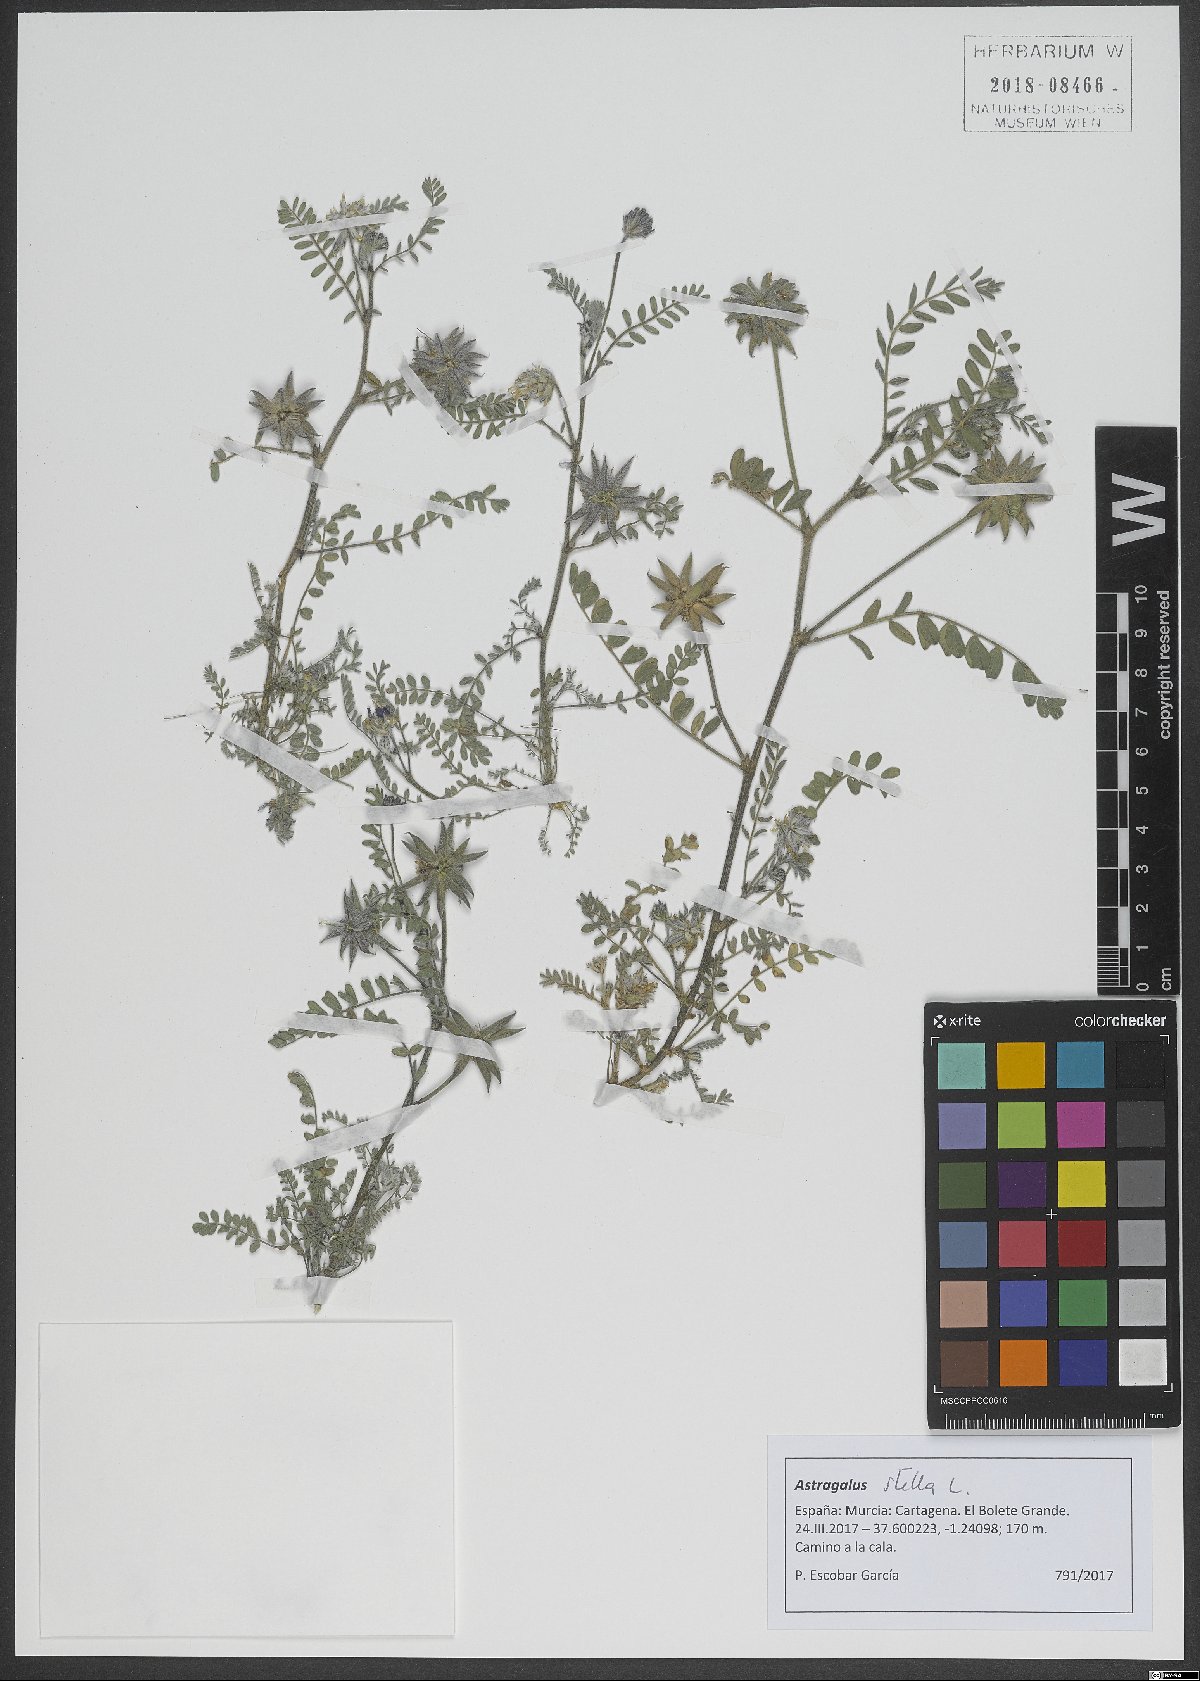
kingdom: Plantae
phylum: Tracheophyta
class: Magnoliopsida
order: Fabales
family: Fabaceae
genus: Astragalus
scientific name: Astragalus stella
